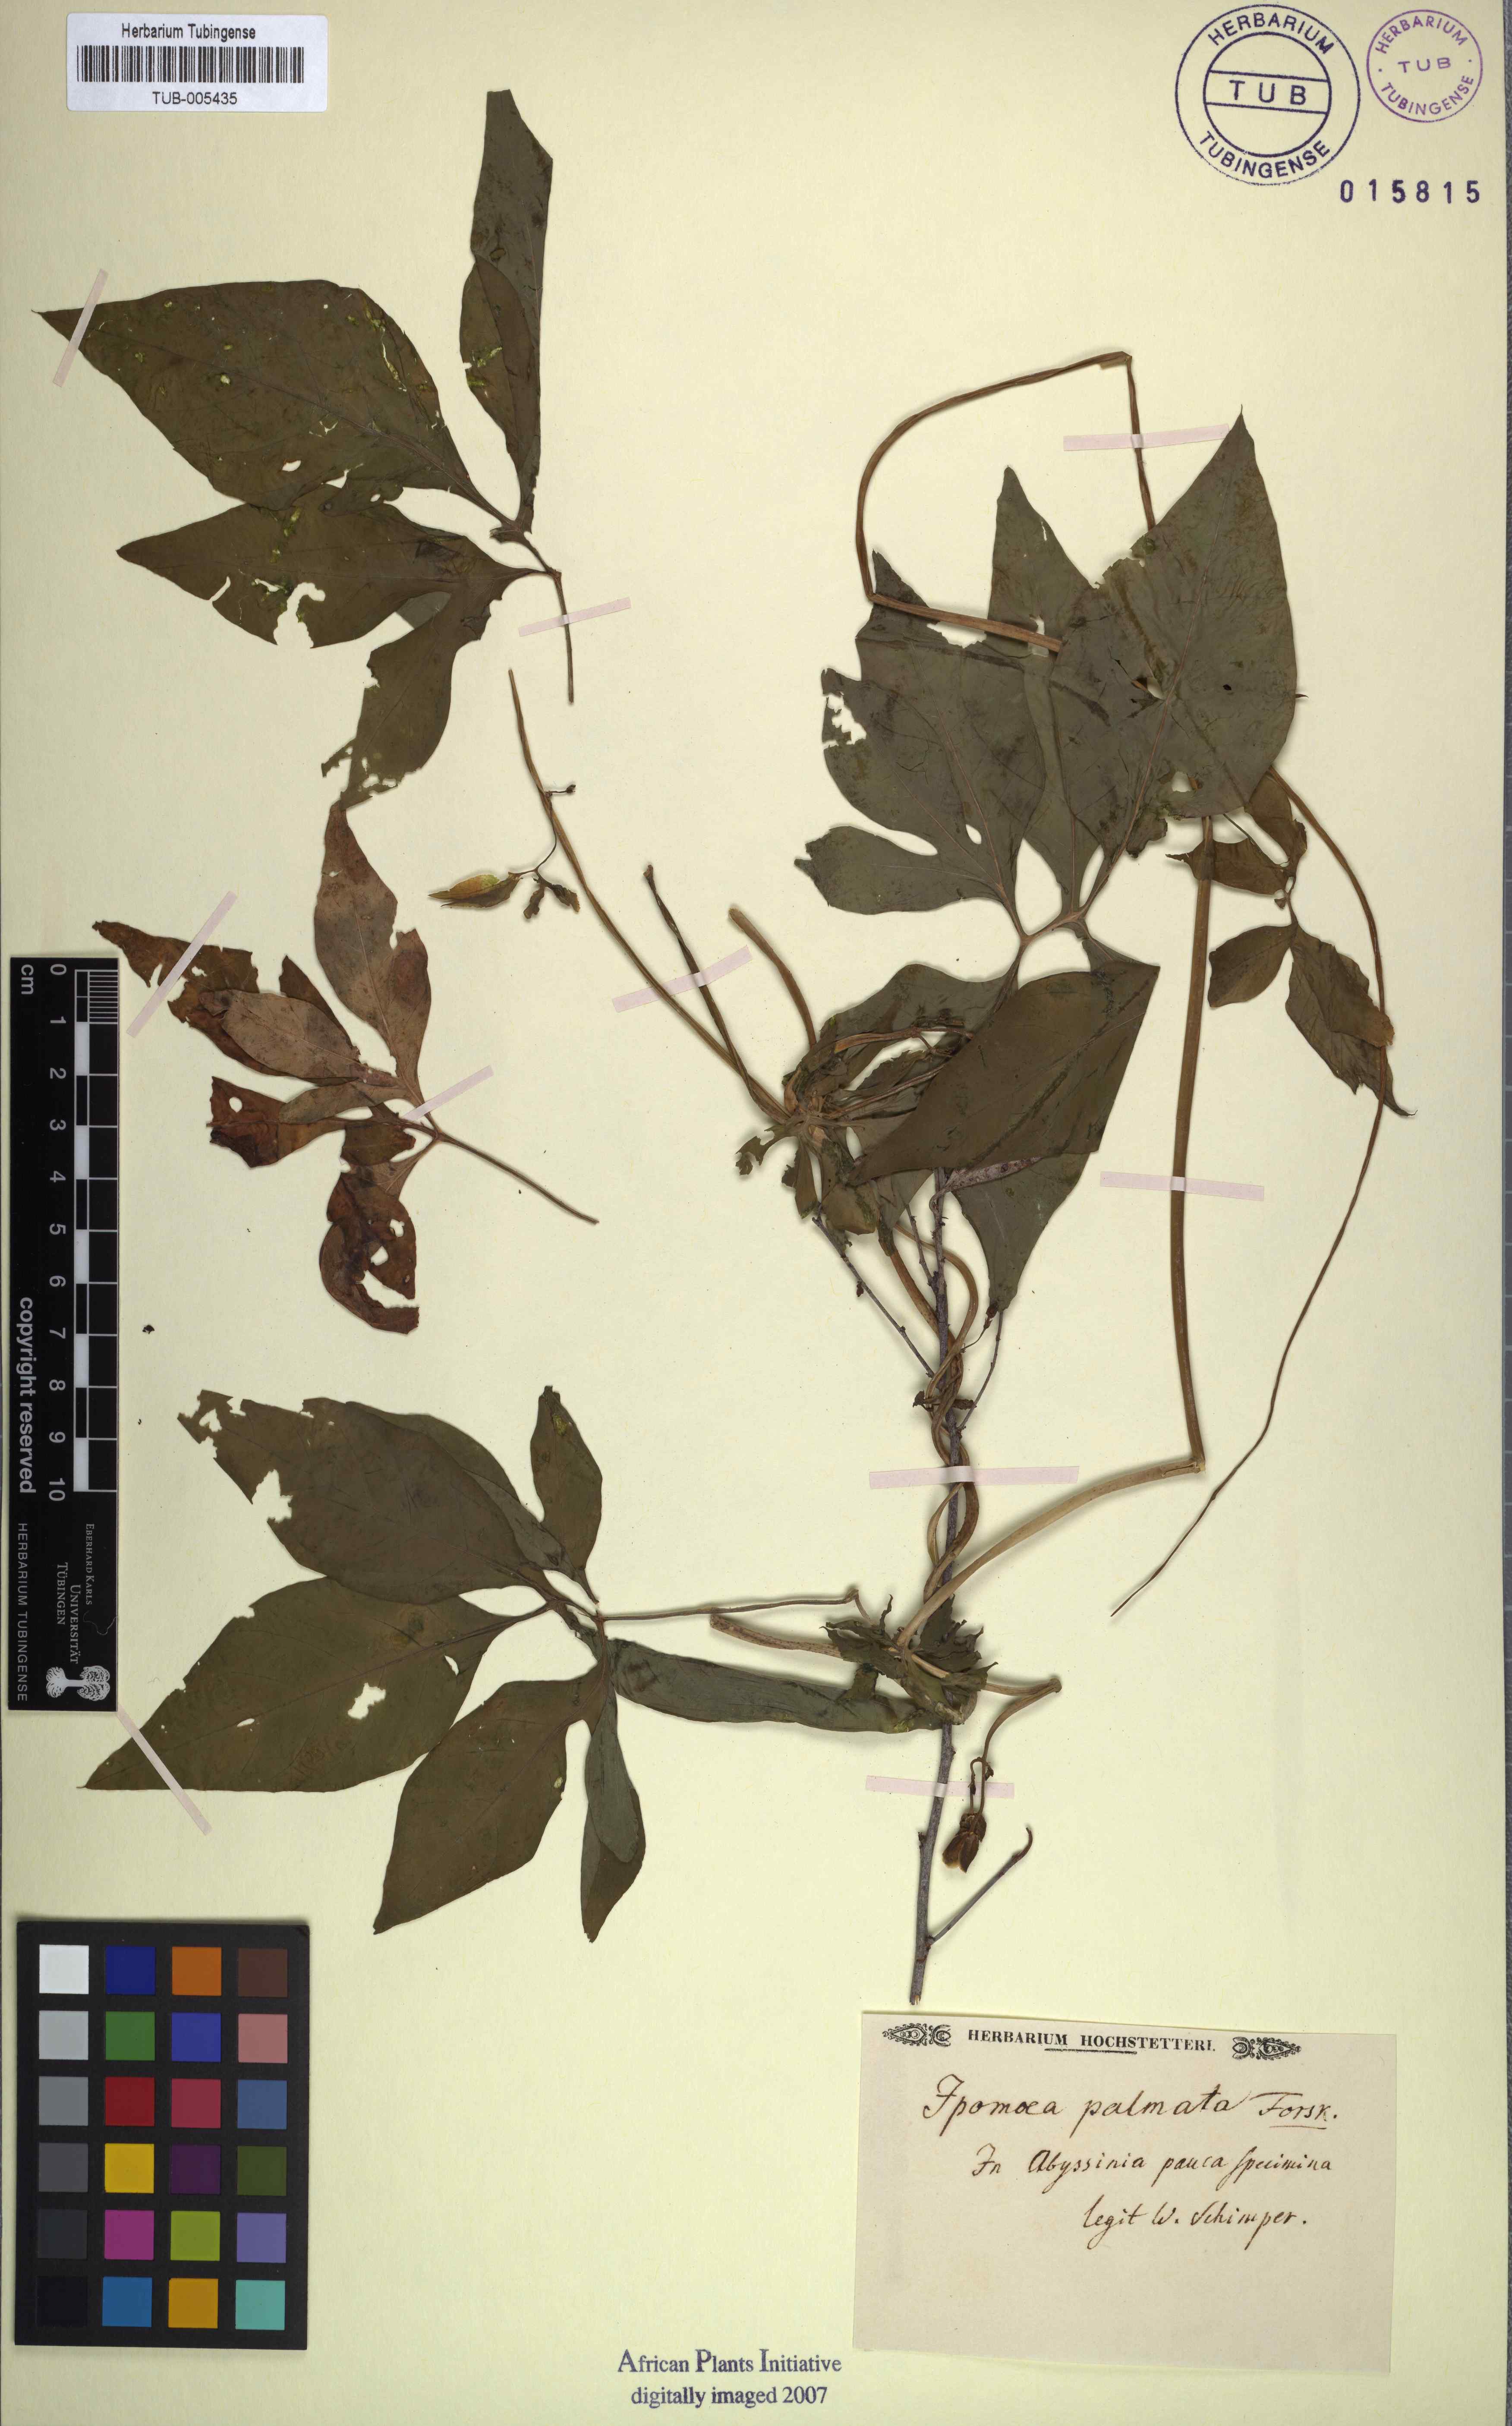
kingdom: Plantae
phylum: Tracheophyta
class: Magnoliopsida
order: Solanales
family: Convolvulaceae
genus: Ipomoea
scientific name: Ipomoea cairica
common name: Mile a minute vine
